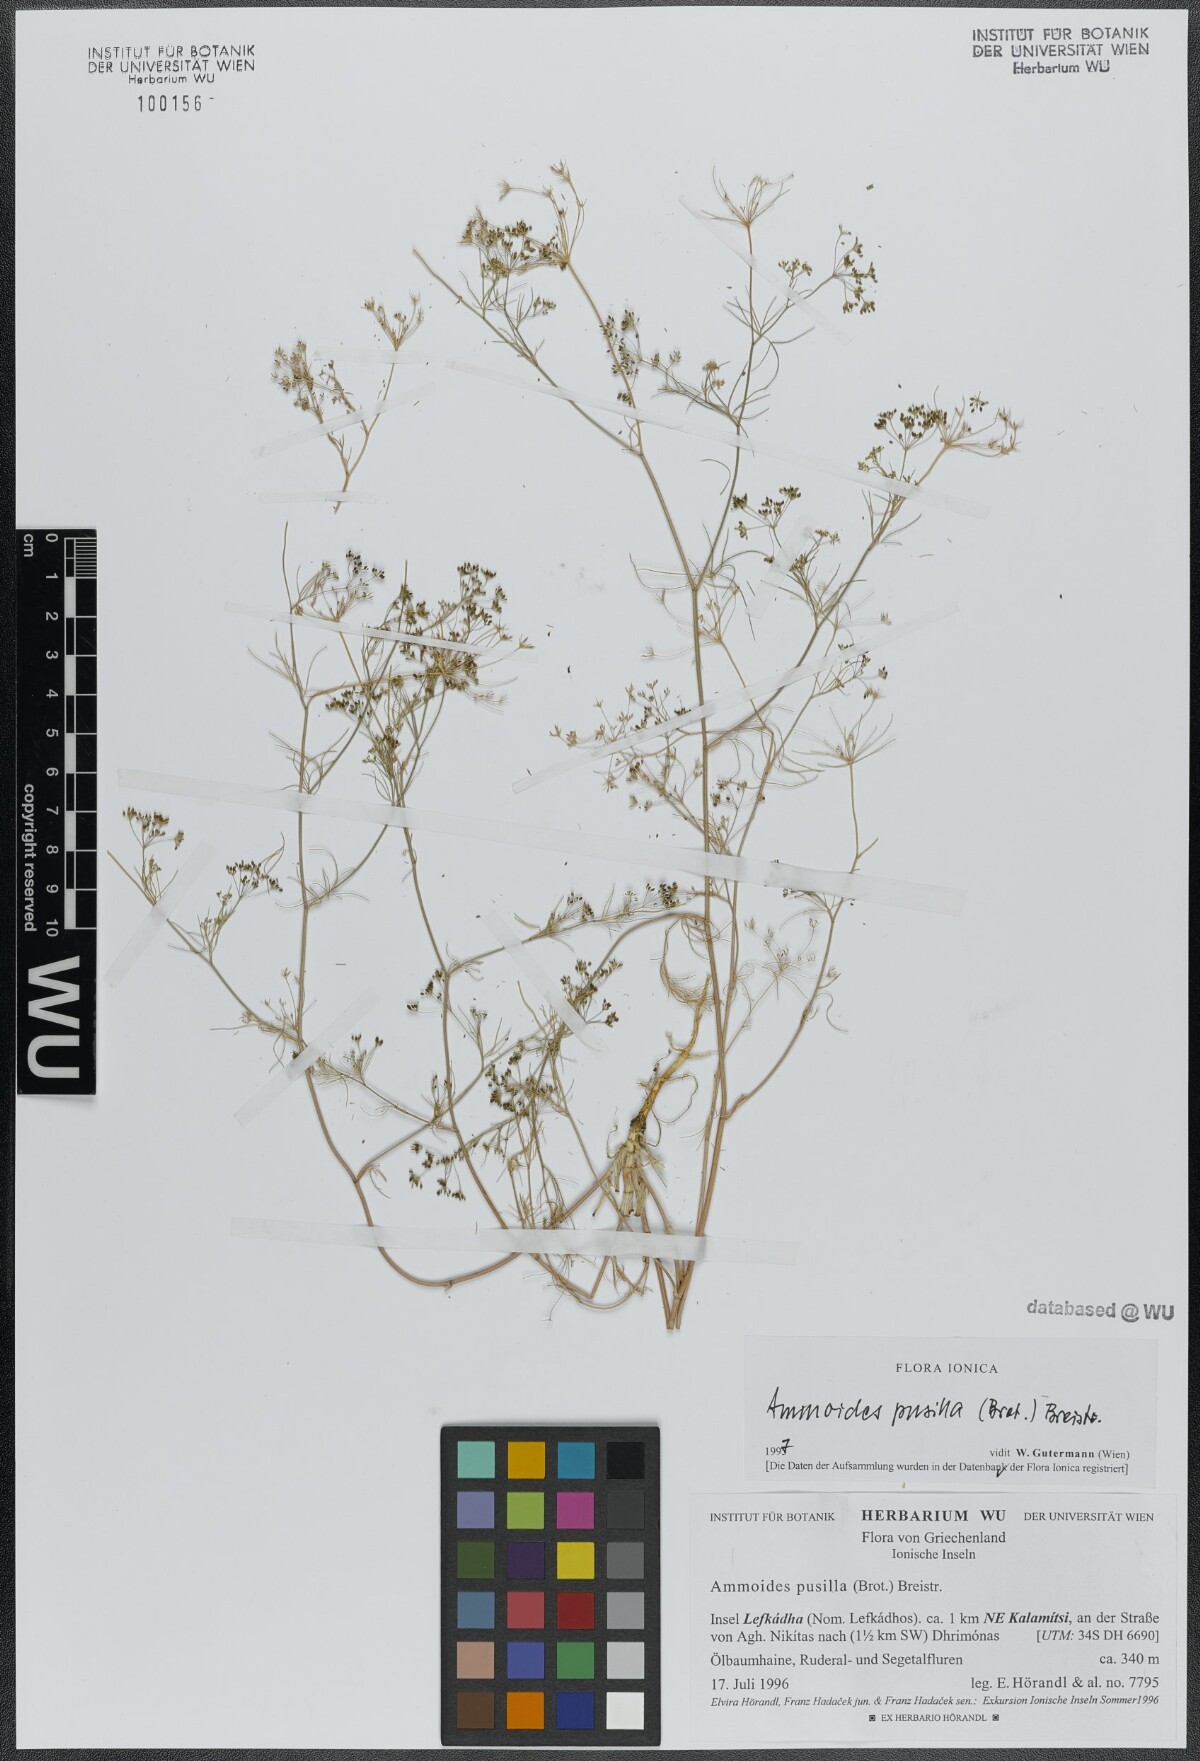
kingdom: Plantae
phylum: Tracheophyta
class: Magnoliopsida
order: Apiales
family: Apiaceae
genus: Ammoides
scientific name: Ammoides pusilla
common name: Cerfolium
